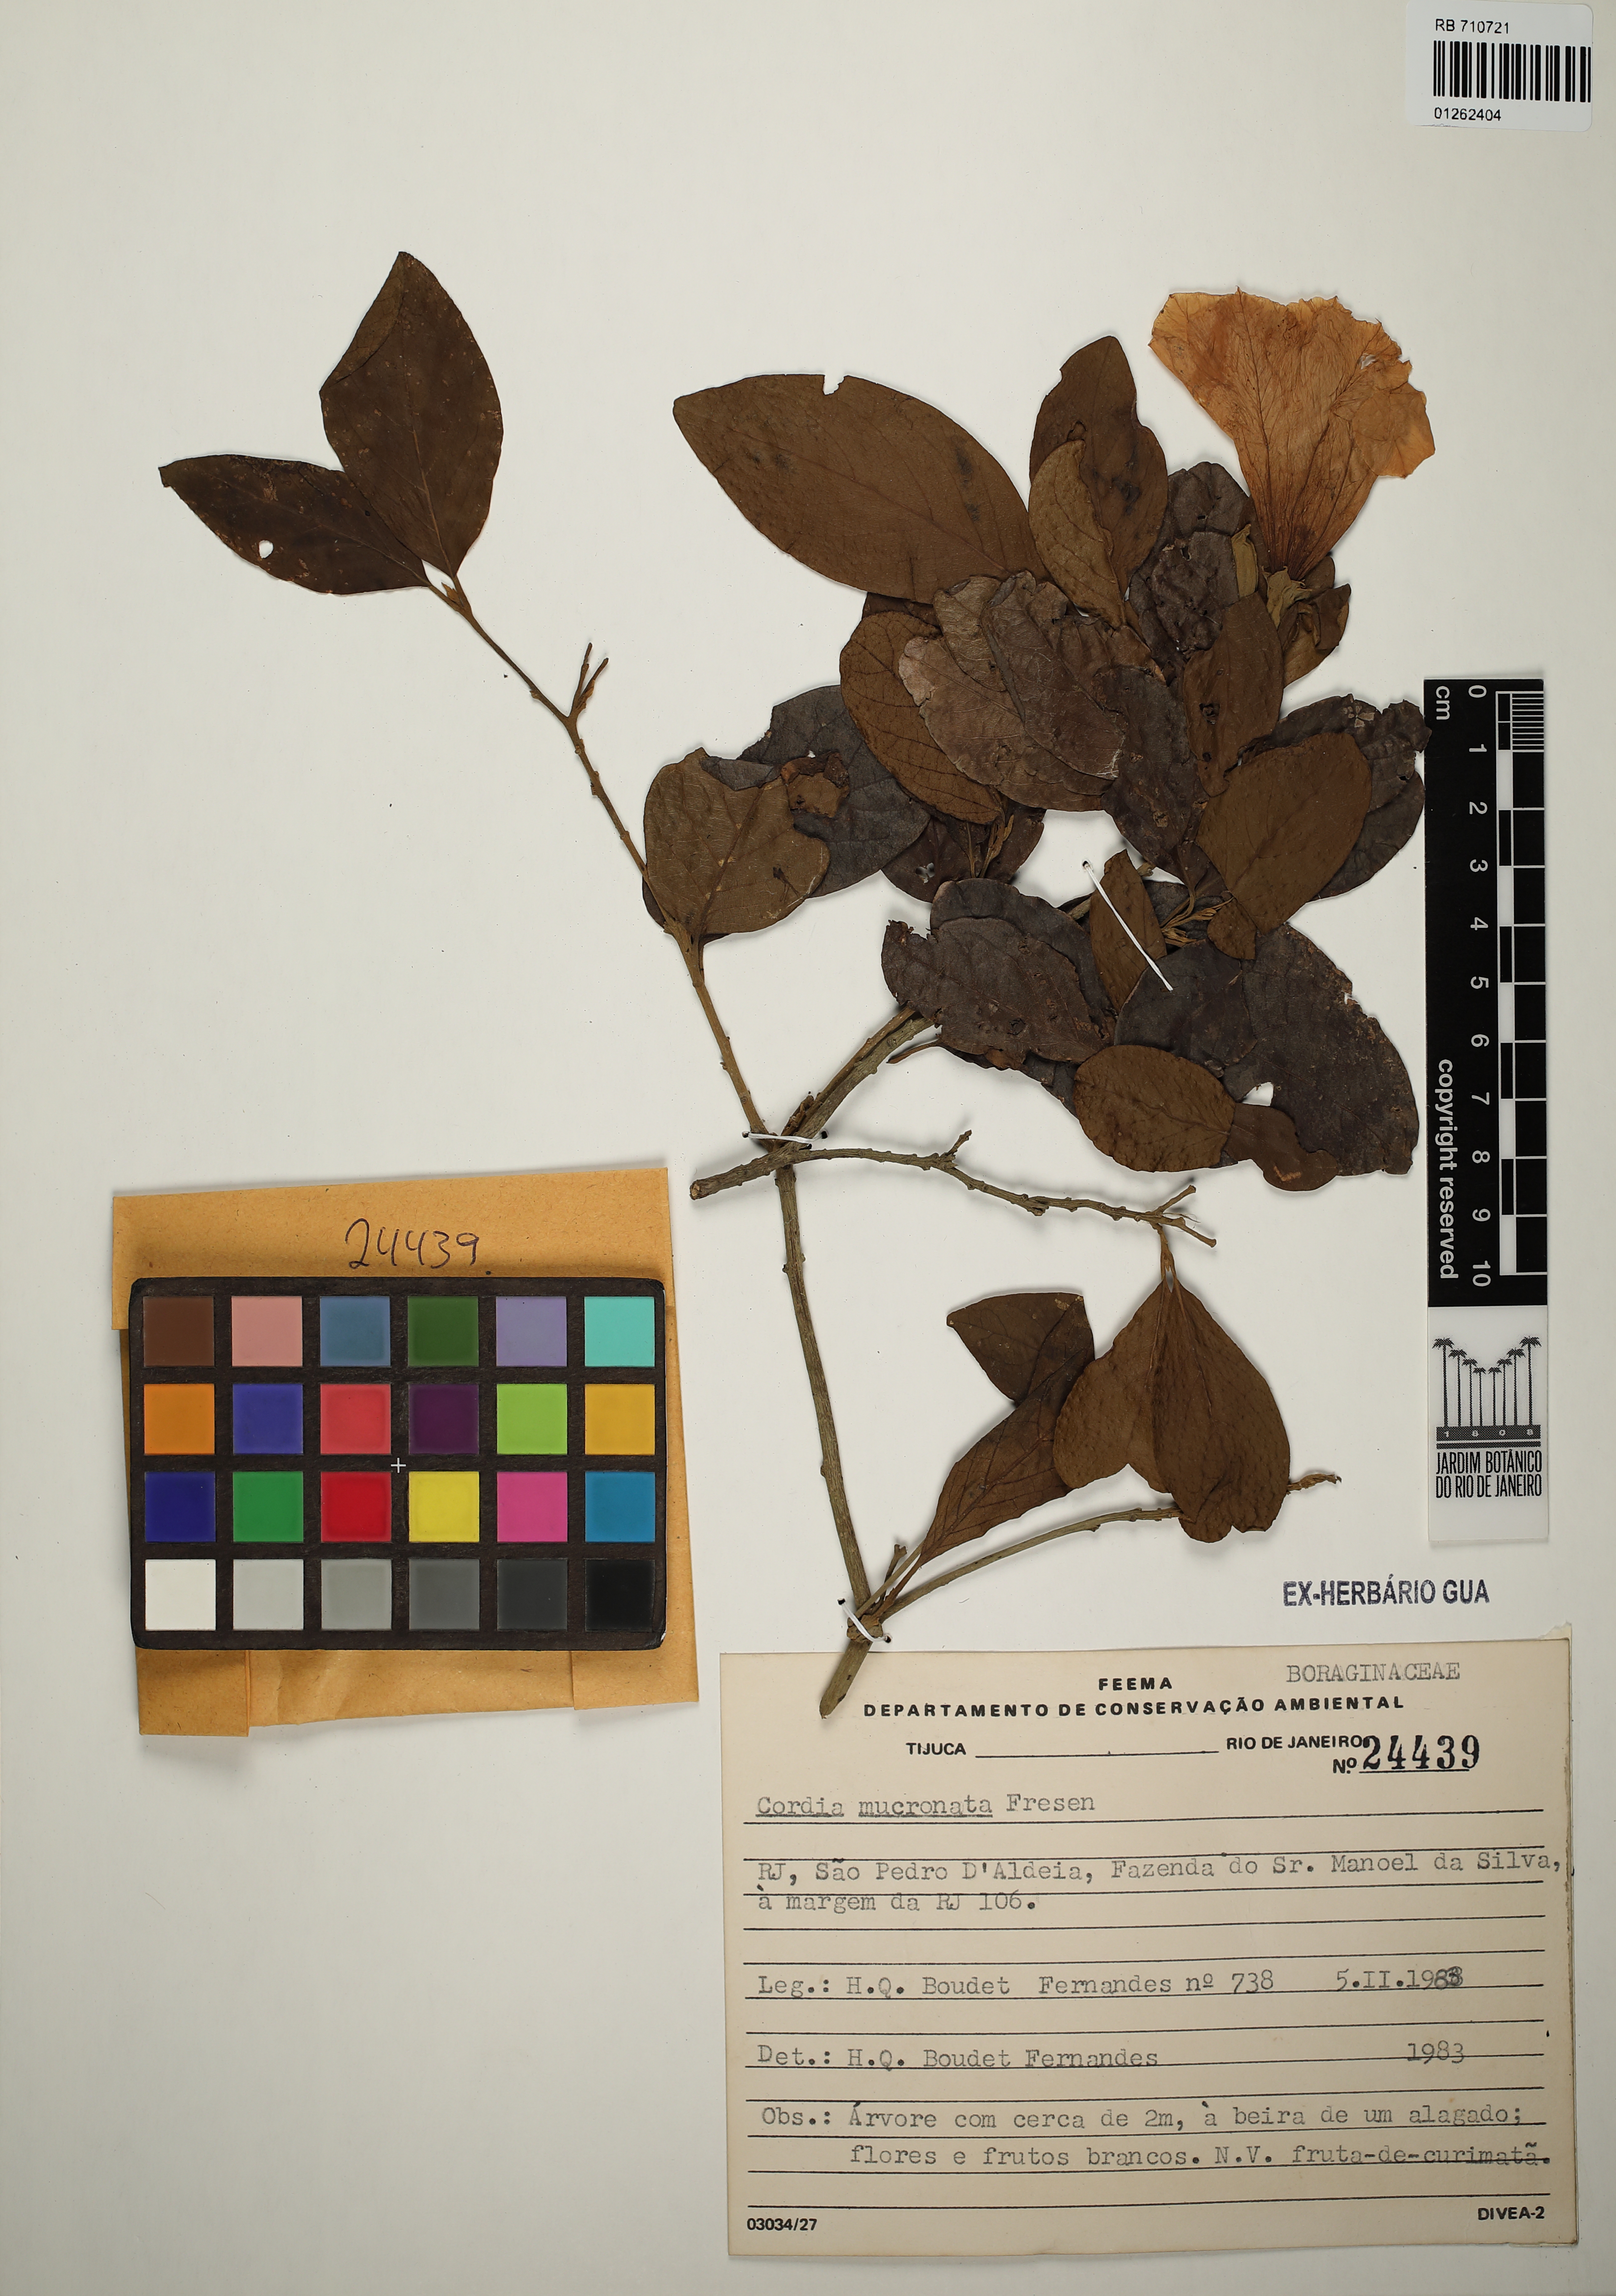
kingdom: Plantae
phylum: Tracheophyta
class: Magnoliopsida
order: Boraginales
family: Cordiaceae
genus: Cordia
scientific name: Cordia aberrans
